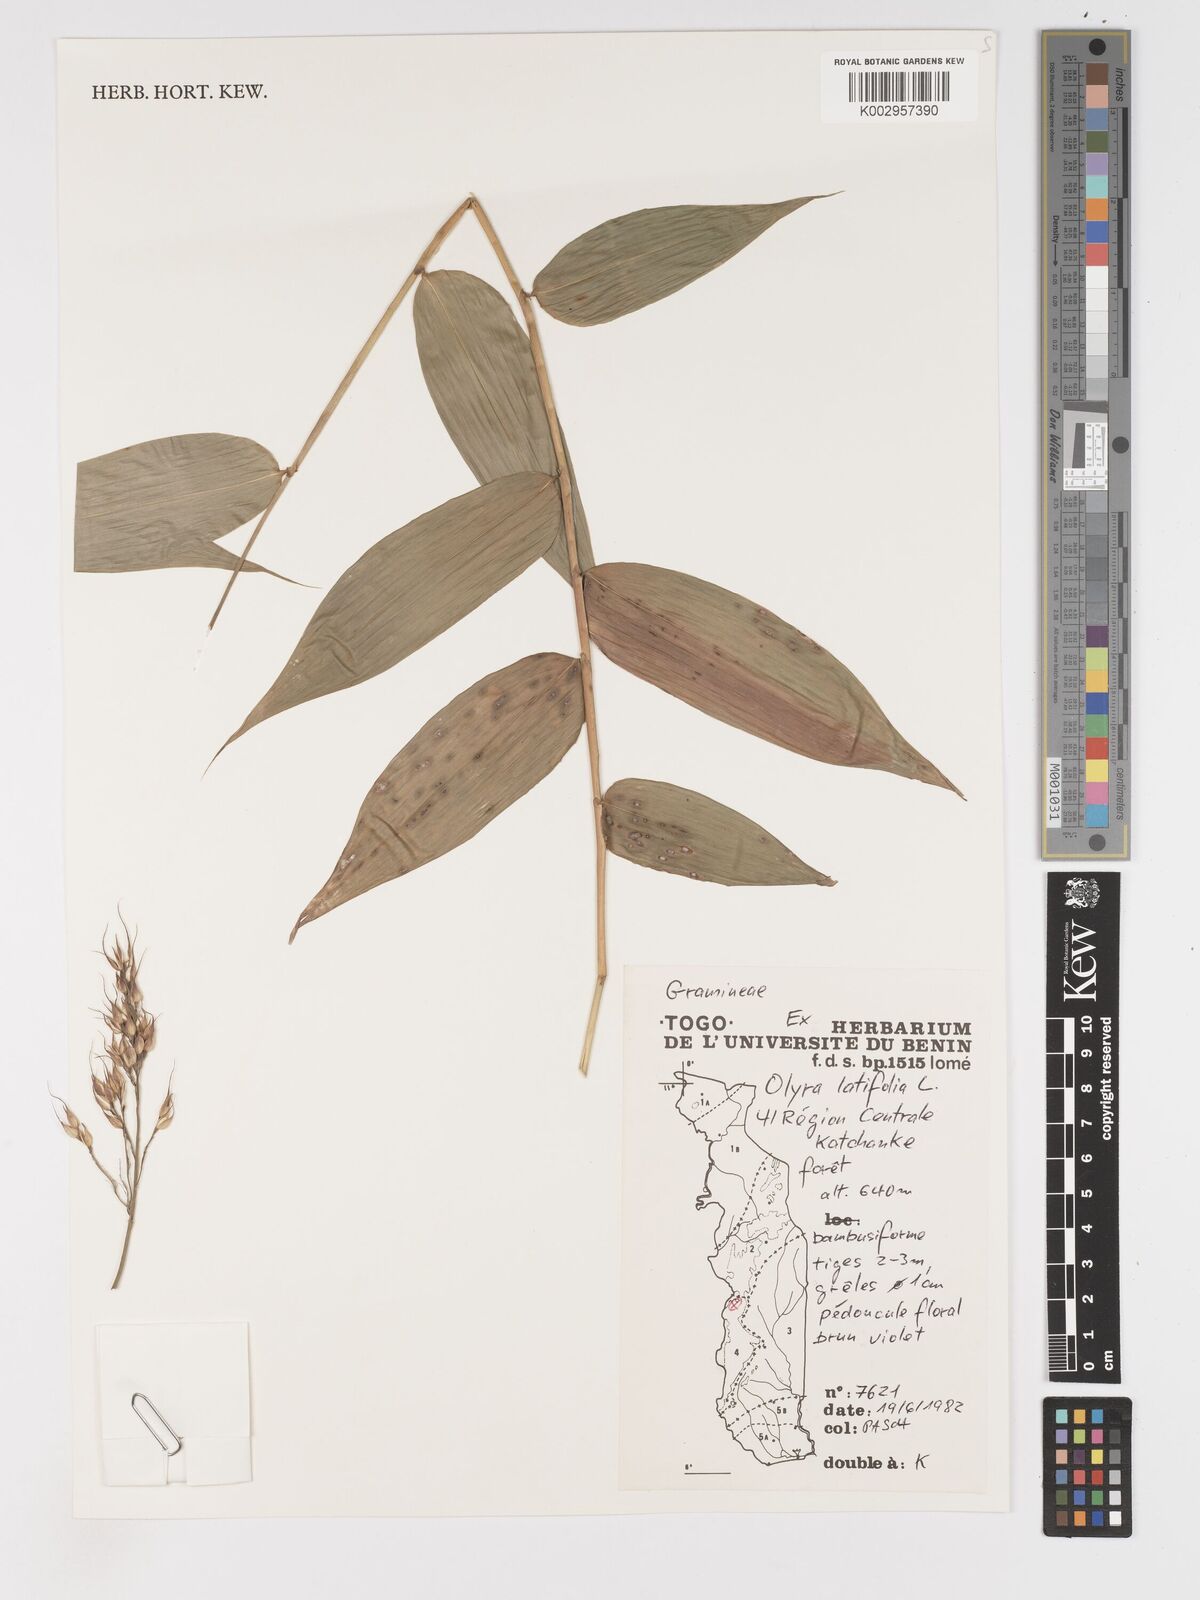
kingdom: Plantae
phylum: Tracheophyta
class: Liliopsida
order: Poales
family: Poaceae
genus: Olyra
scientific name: Olyra latifolia
